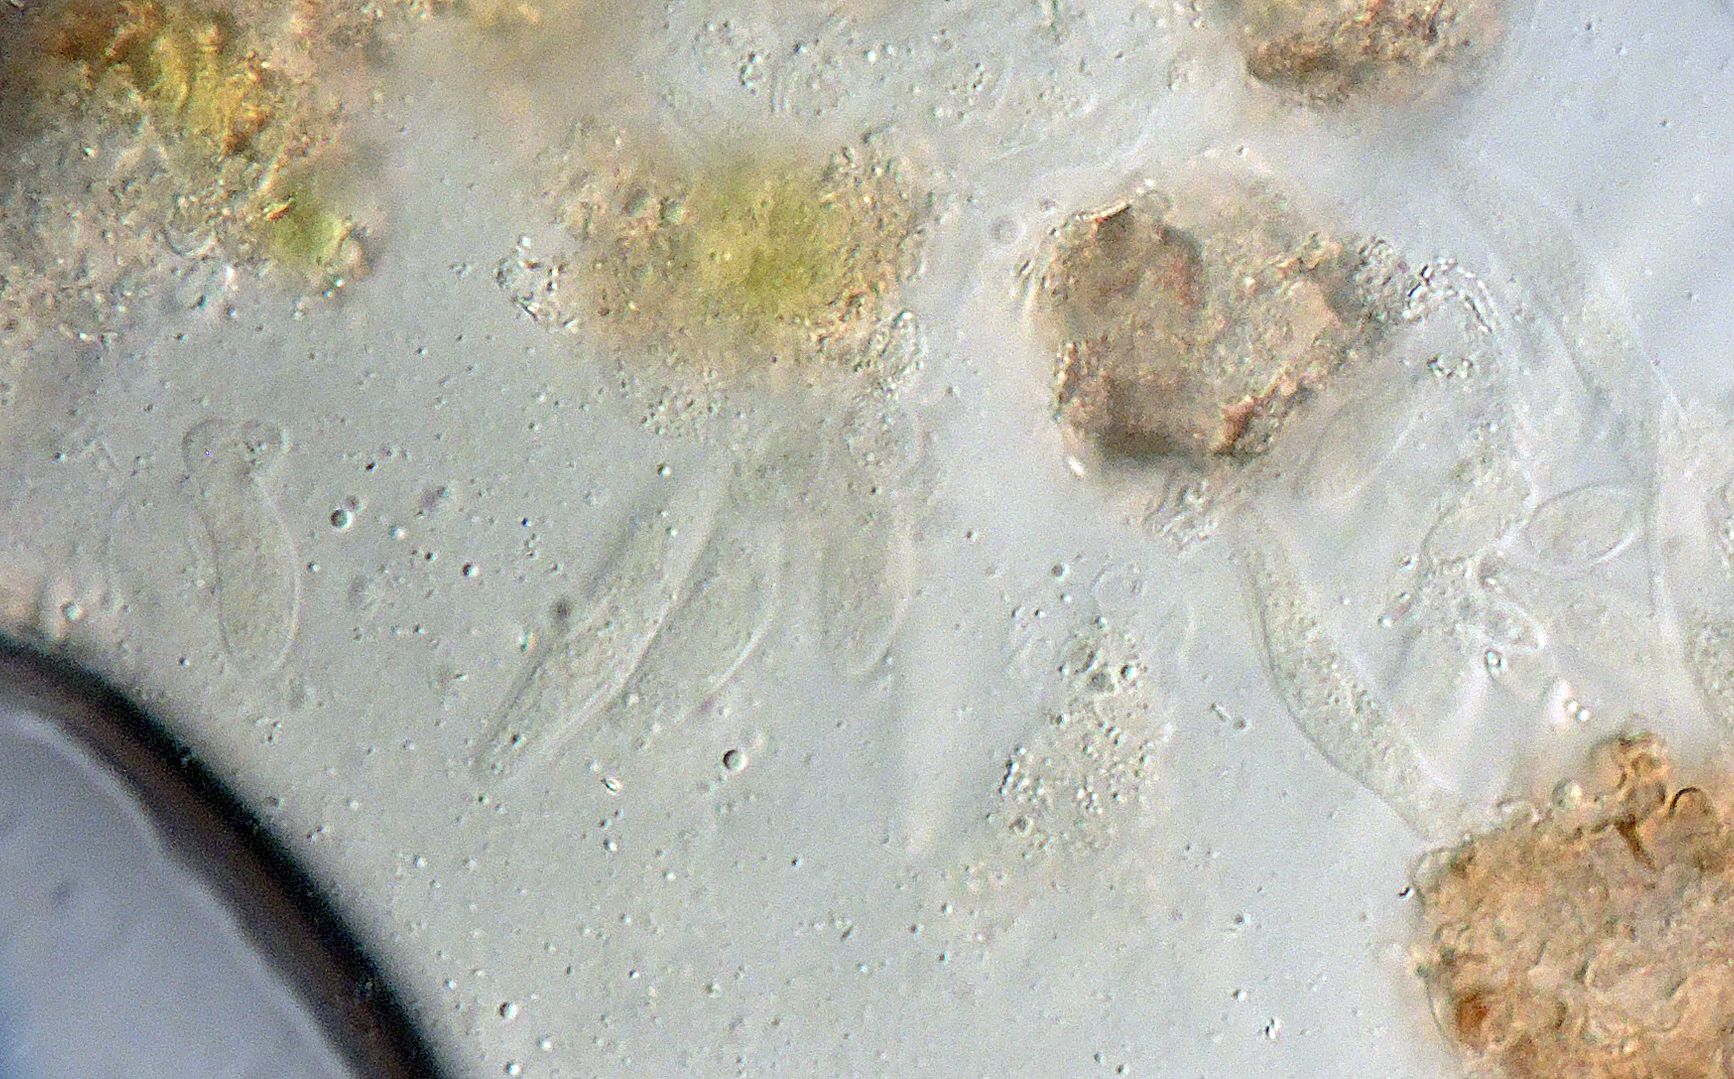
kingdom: Fungi
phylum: Ascomycota
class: Sordariomycetes
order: Hypocreales
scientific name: Hypocreales
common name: kødkerneordenen
